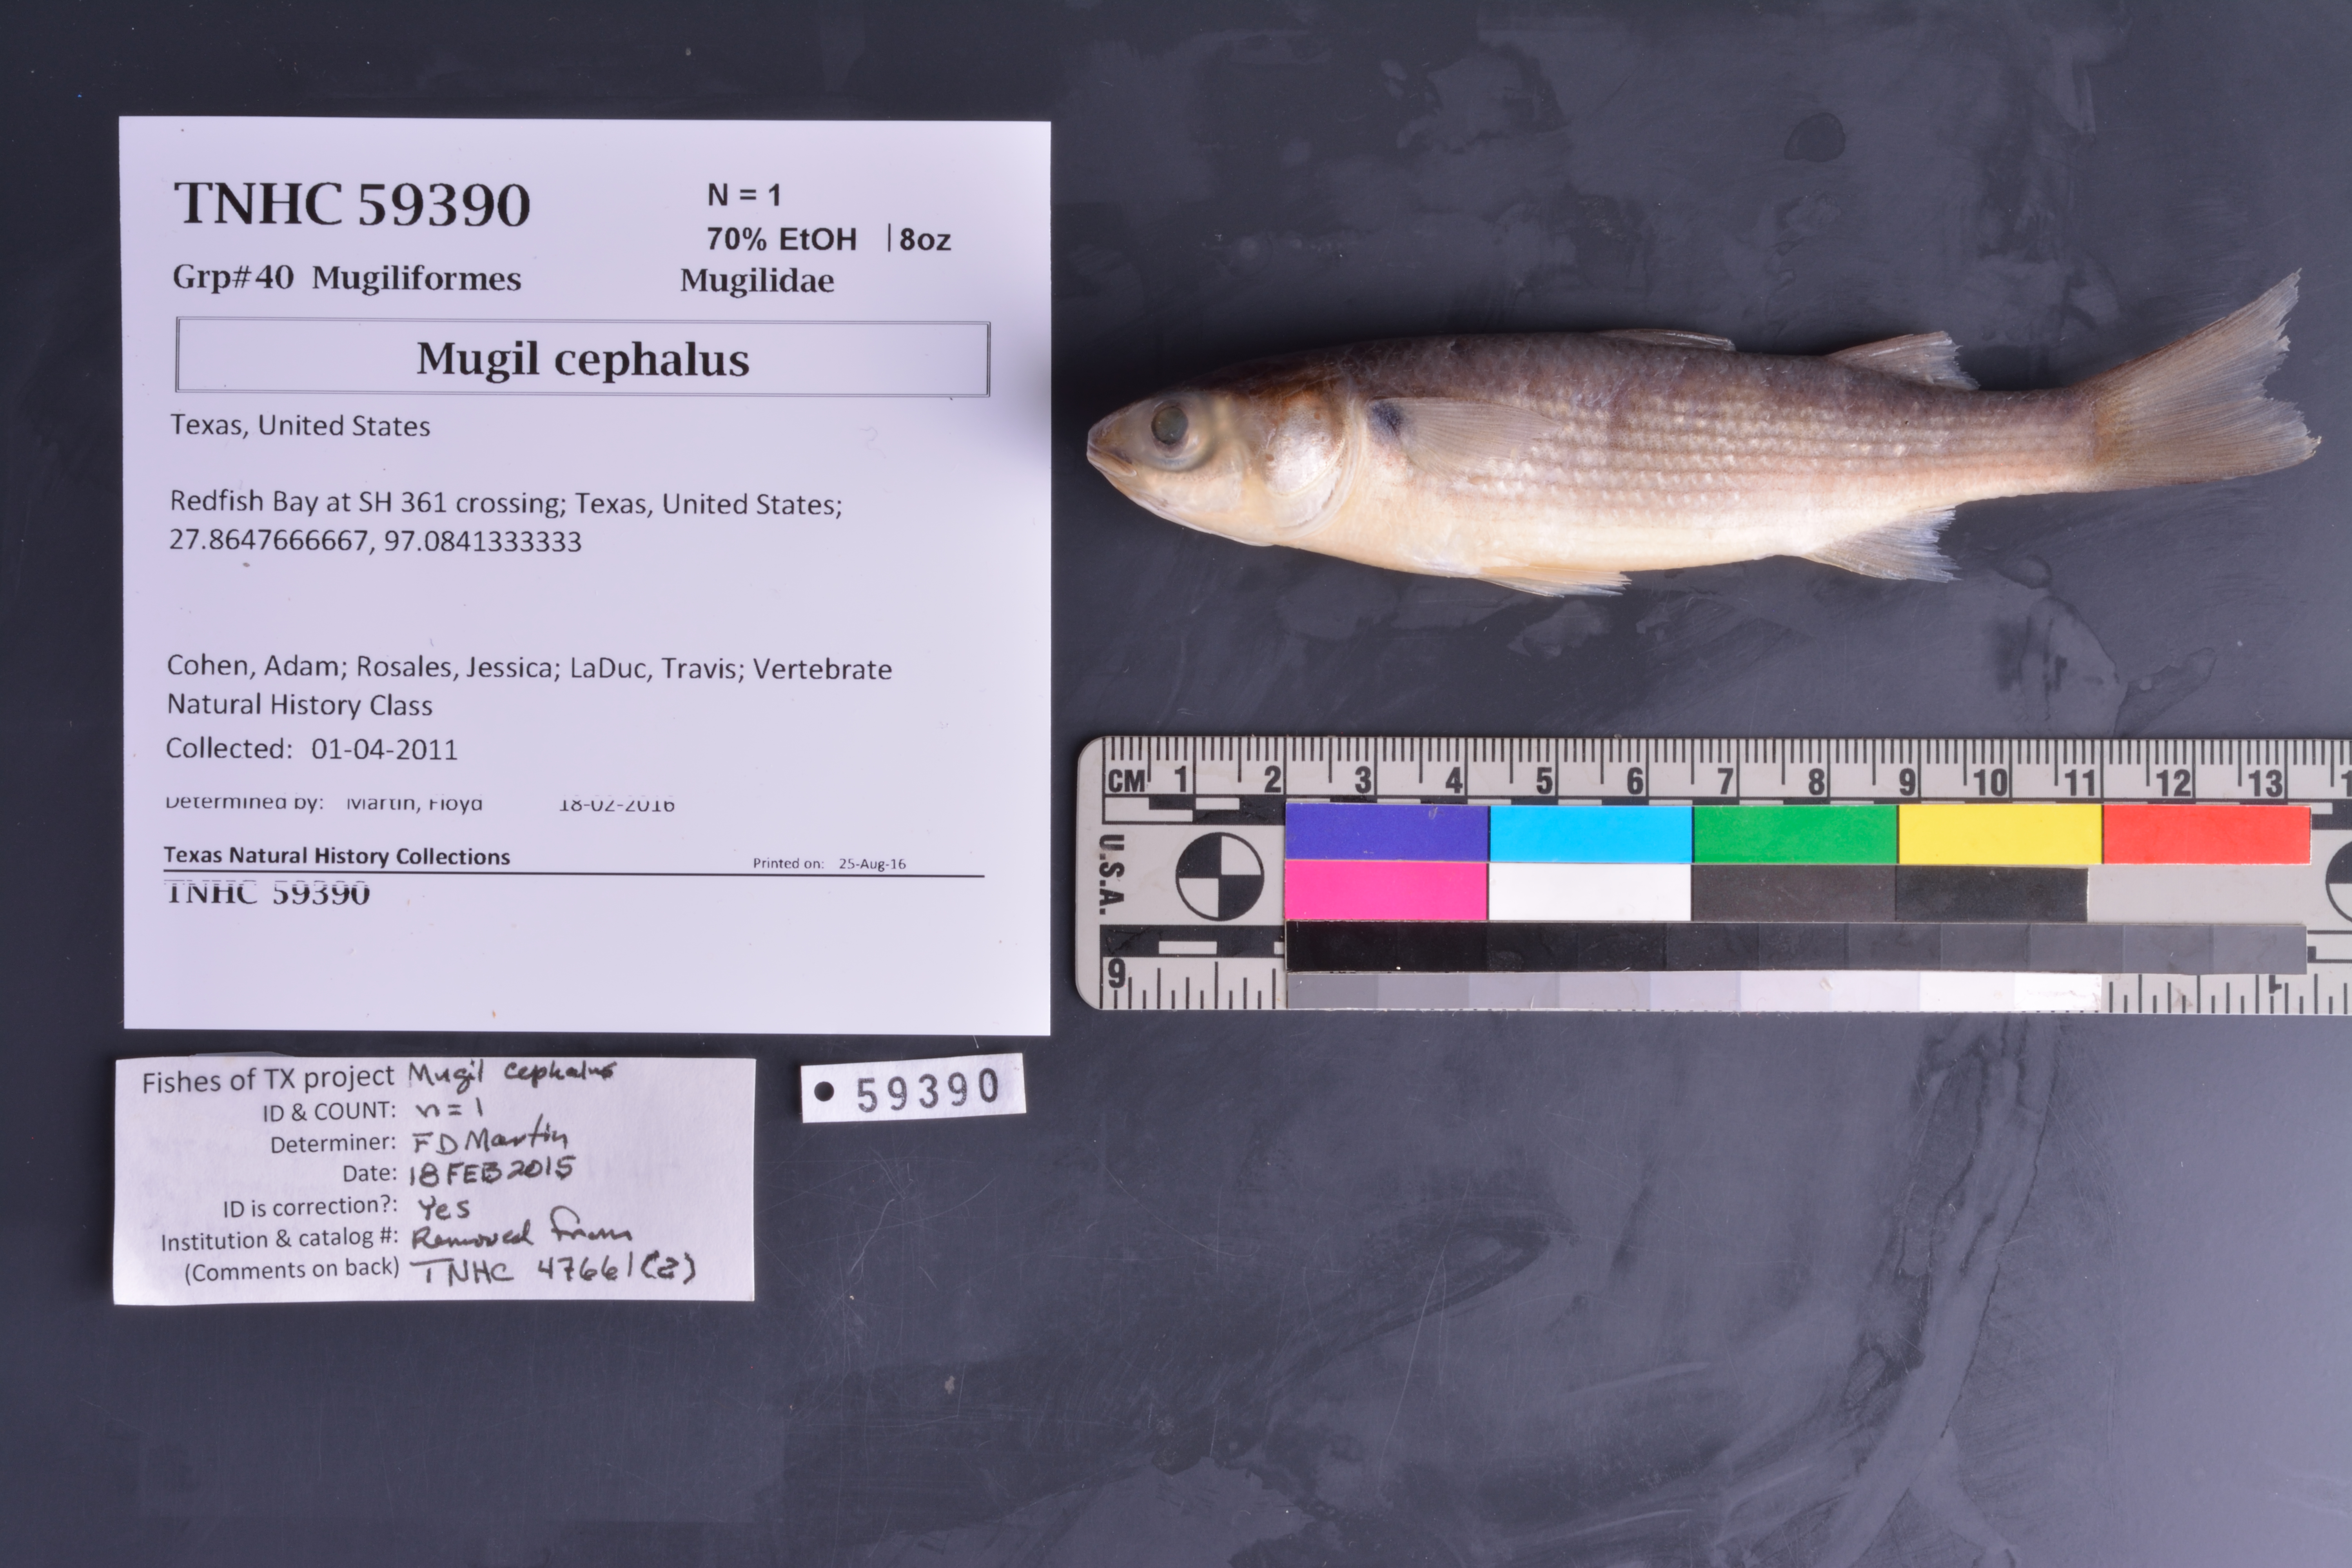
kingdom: Animalia
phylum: Chordata
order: Mugiliformes
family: Mugilidae
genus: Mugil
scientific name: Mugil cephalus
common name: Grey mullet
